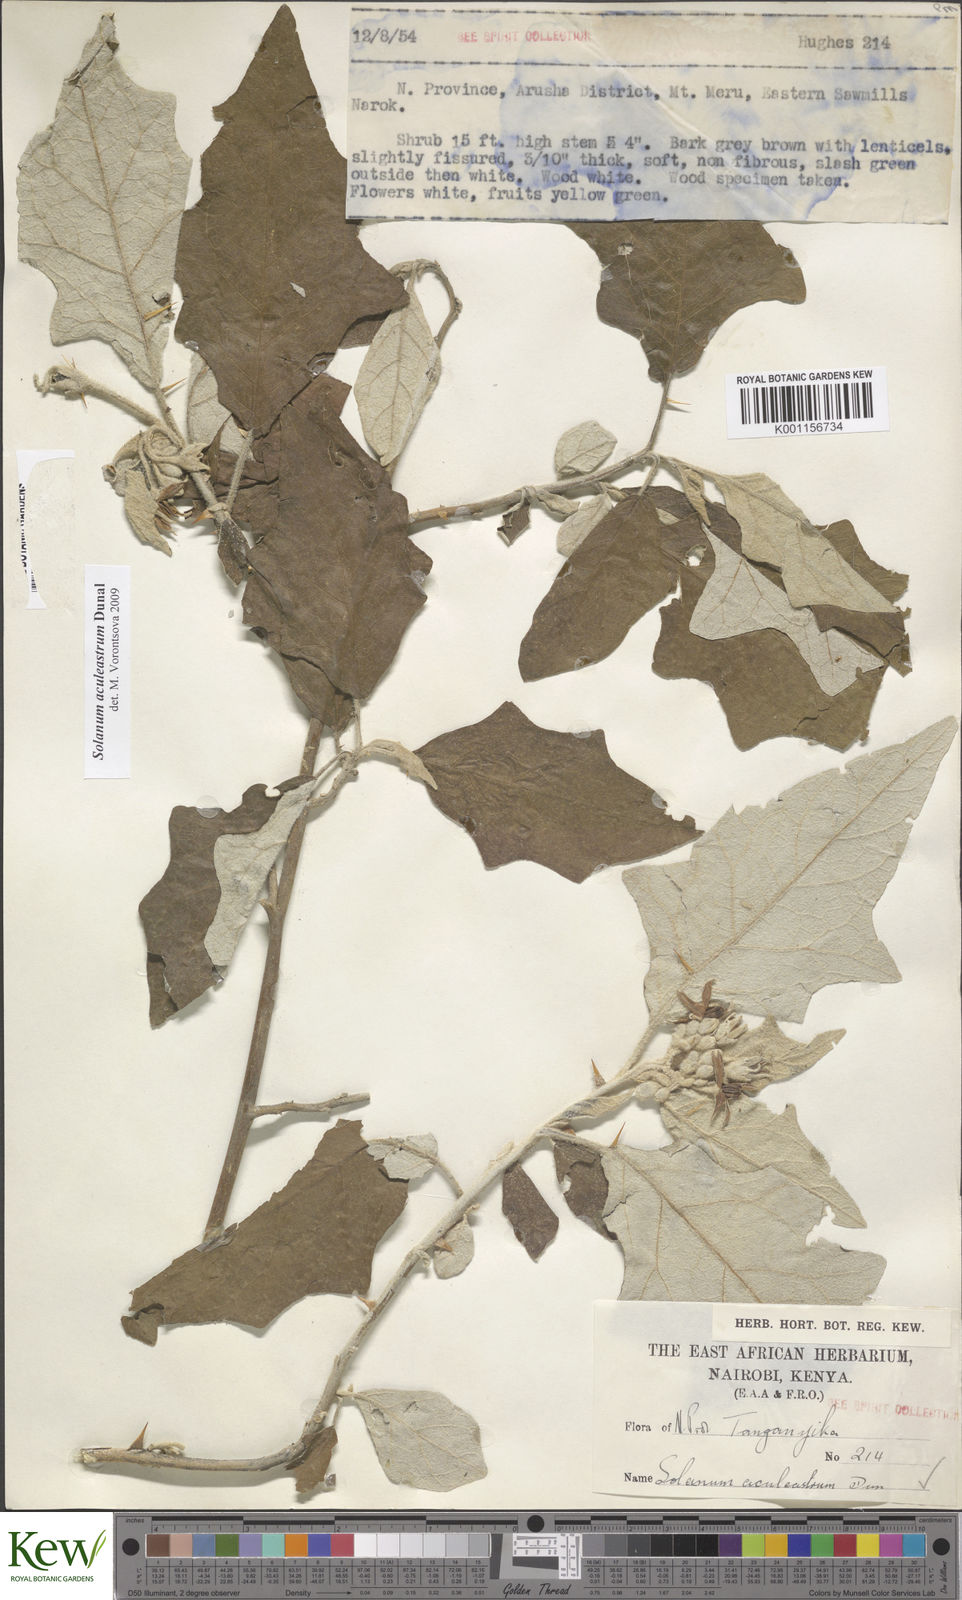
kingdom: Plantae
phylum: Tracheophyta
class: Magnoliopsida
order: Solanales
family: Solanaceae
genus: Solanum
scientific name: Solanum aculeastrum
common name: Goat bitter-apple
